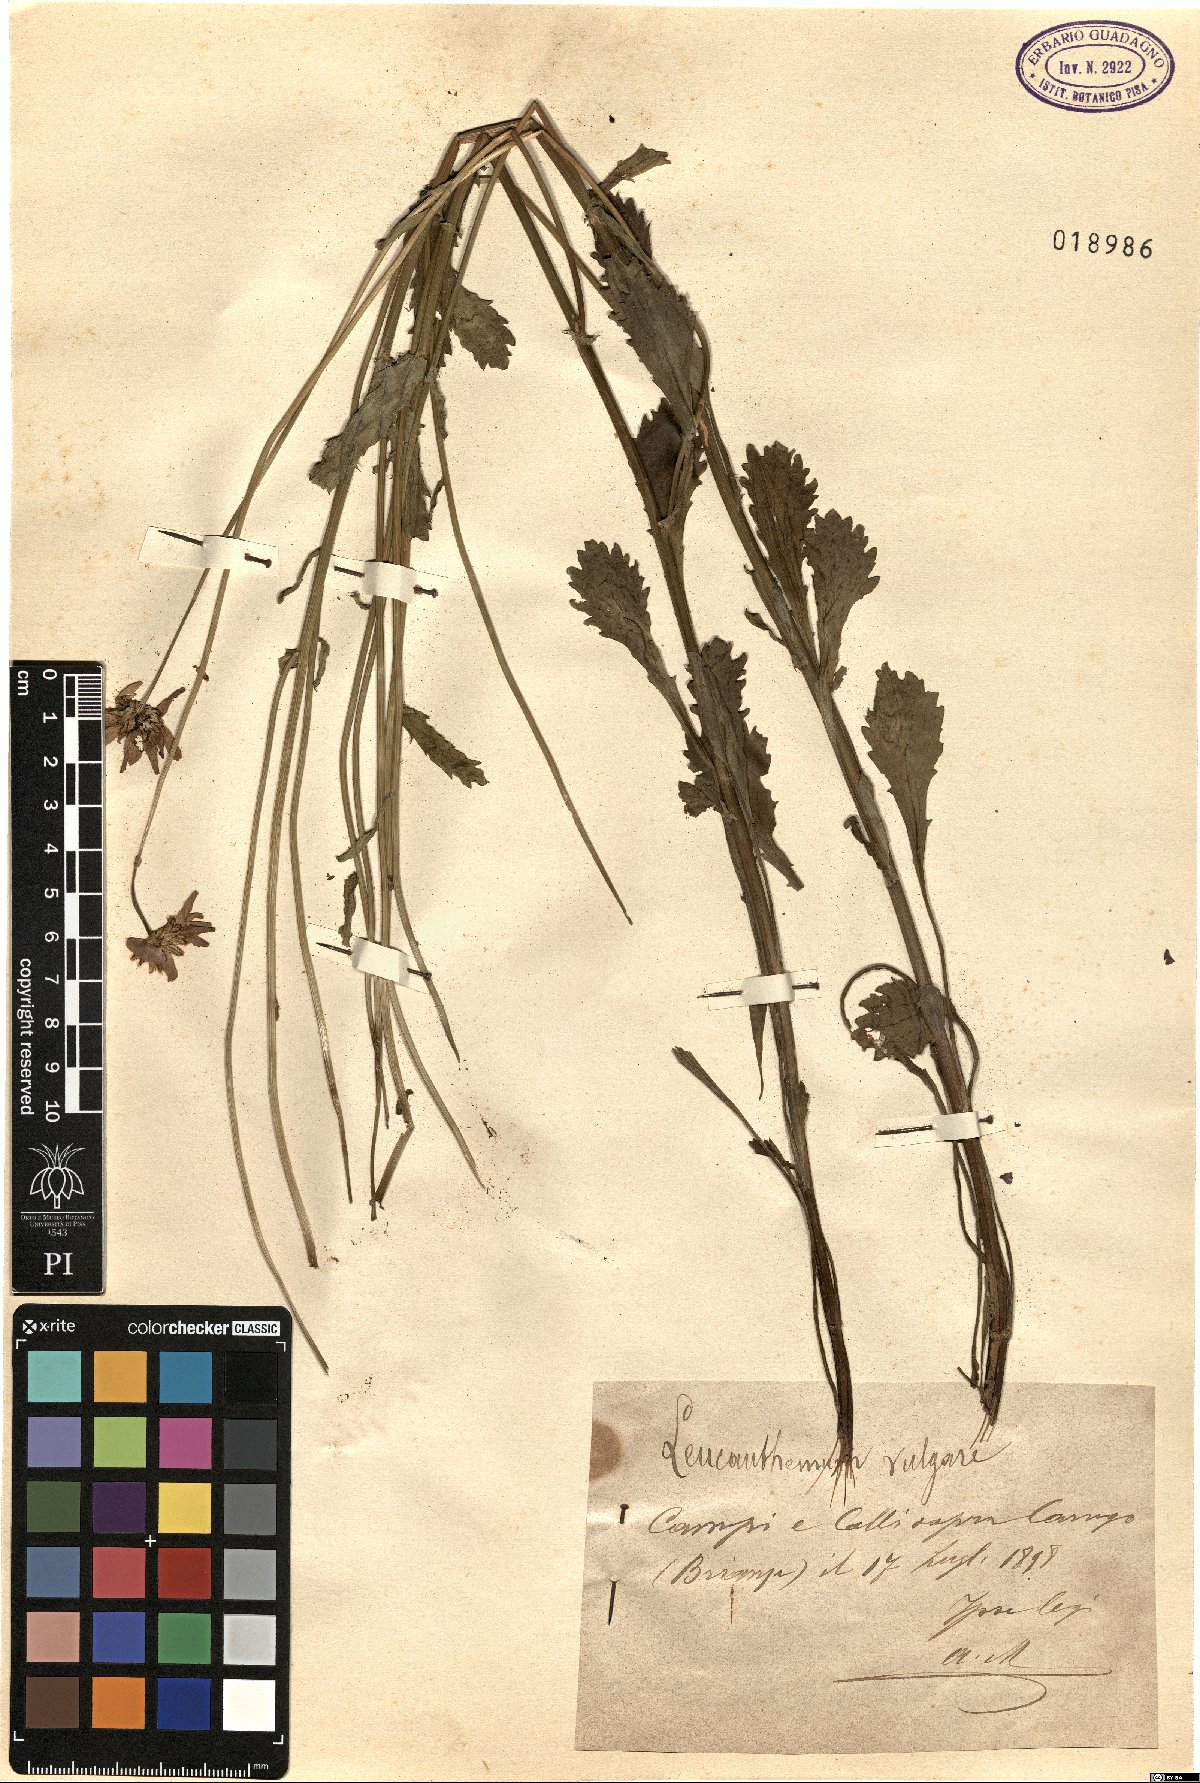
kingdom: Plantae
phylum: Tracheophyta
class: Magnoliopsida
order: Asterales
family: Asteraceae
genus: Leucanthemum
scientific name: Leucanthemum vulgare
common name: Oxeye daisy
